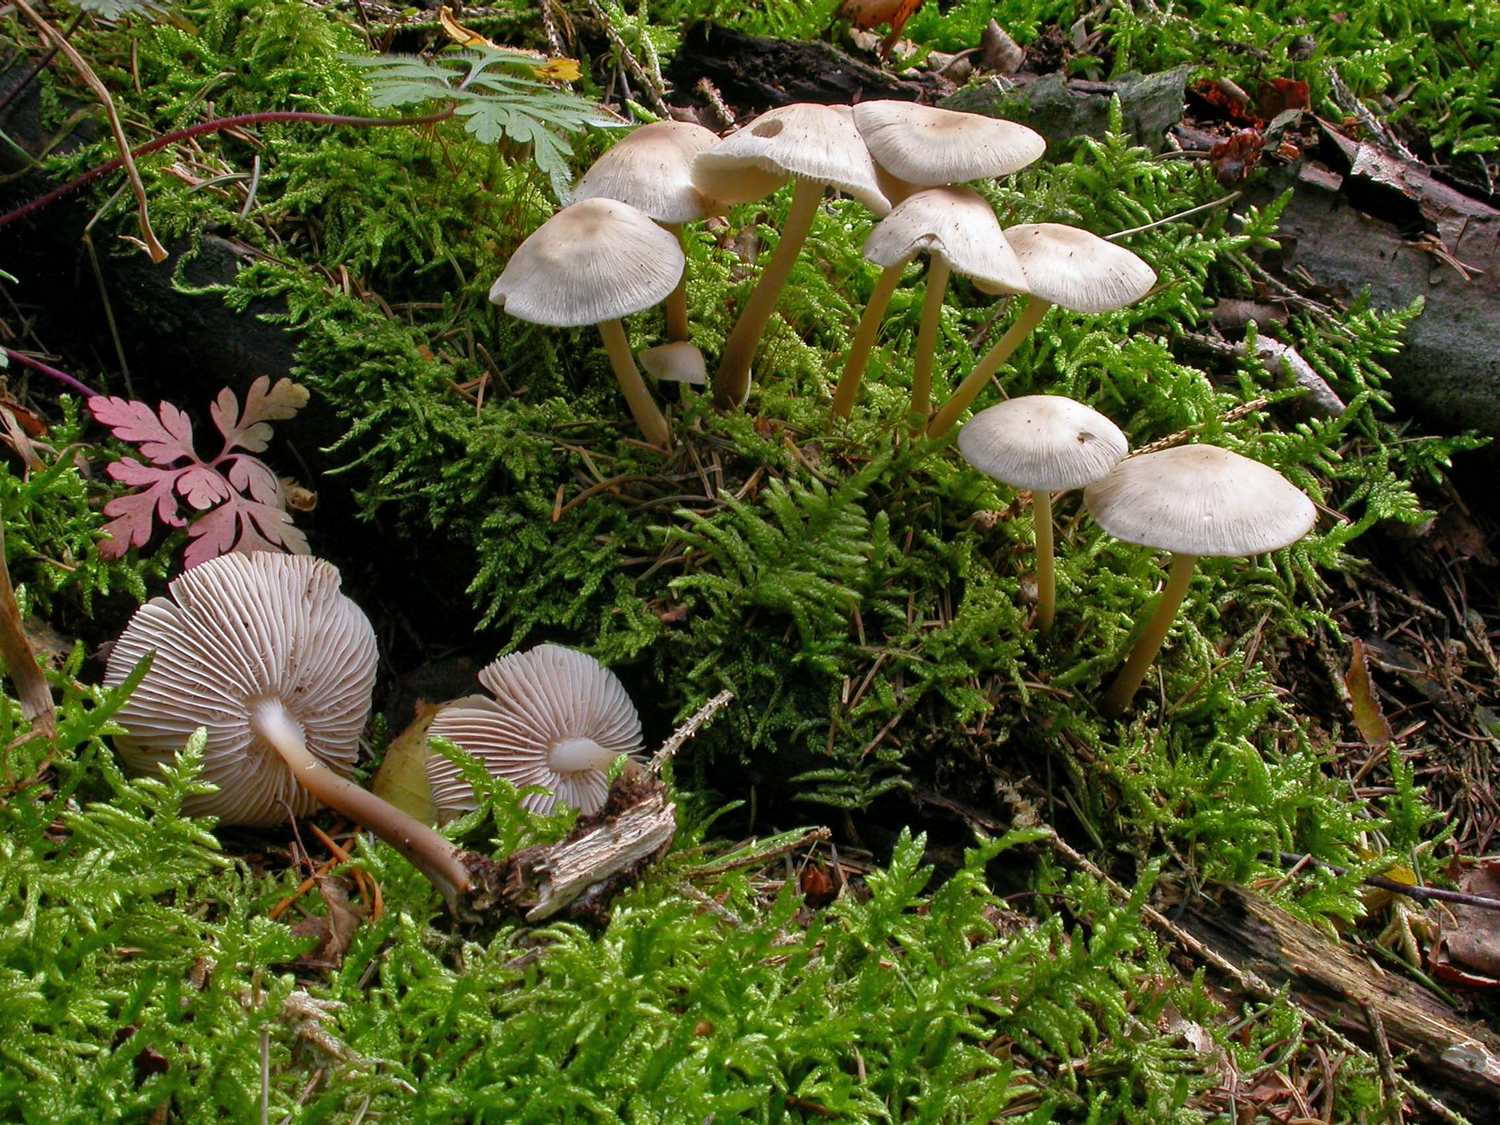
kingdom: Fungi
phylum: Basidiomycota
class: Agaricomycetes
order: Agaricales
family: Mycenaceae
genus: Mycena
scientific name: Mycena galericulata
